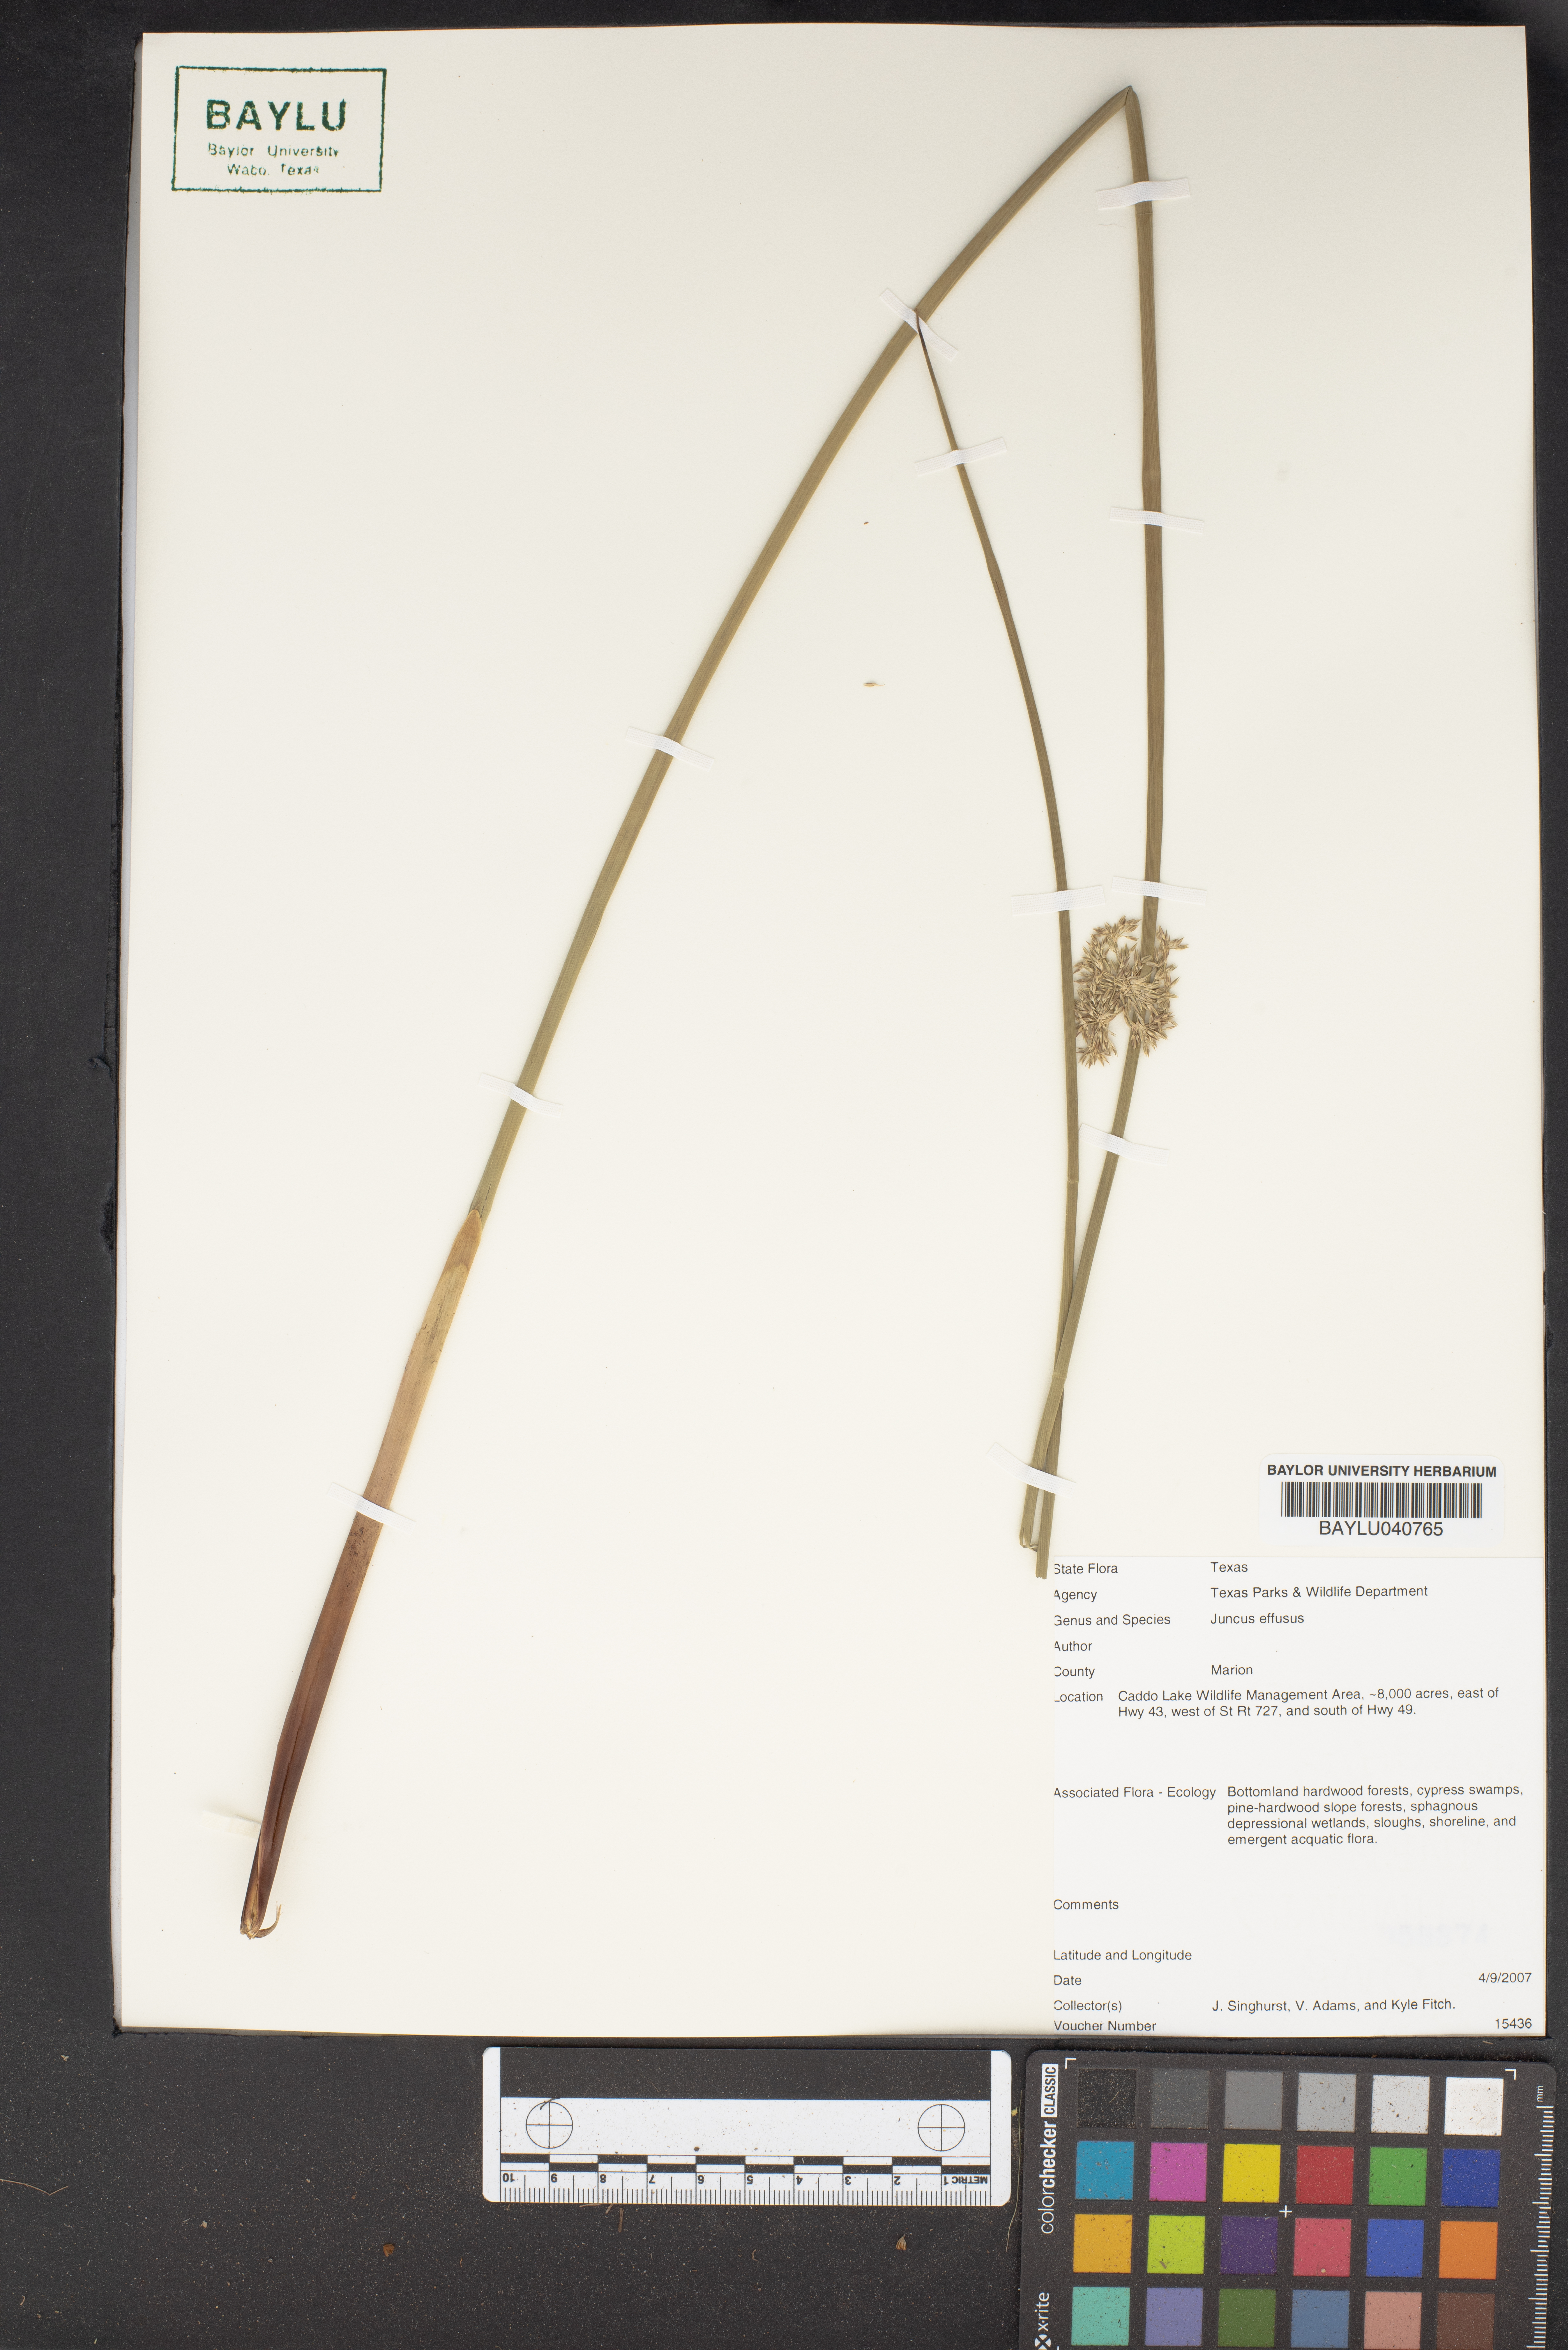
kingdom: Plantae
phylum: Tracheophyta
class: Liliopsida
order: Poales
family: Juncaceae
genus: Juncus
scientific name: Juncus effusus
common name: Soft rush
